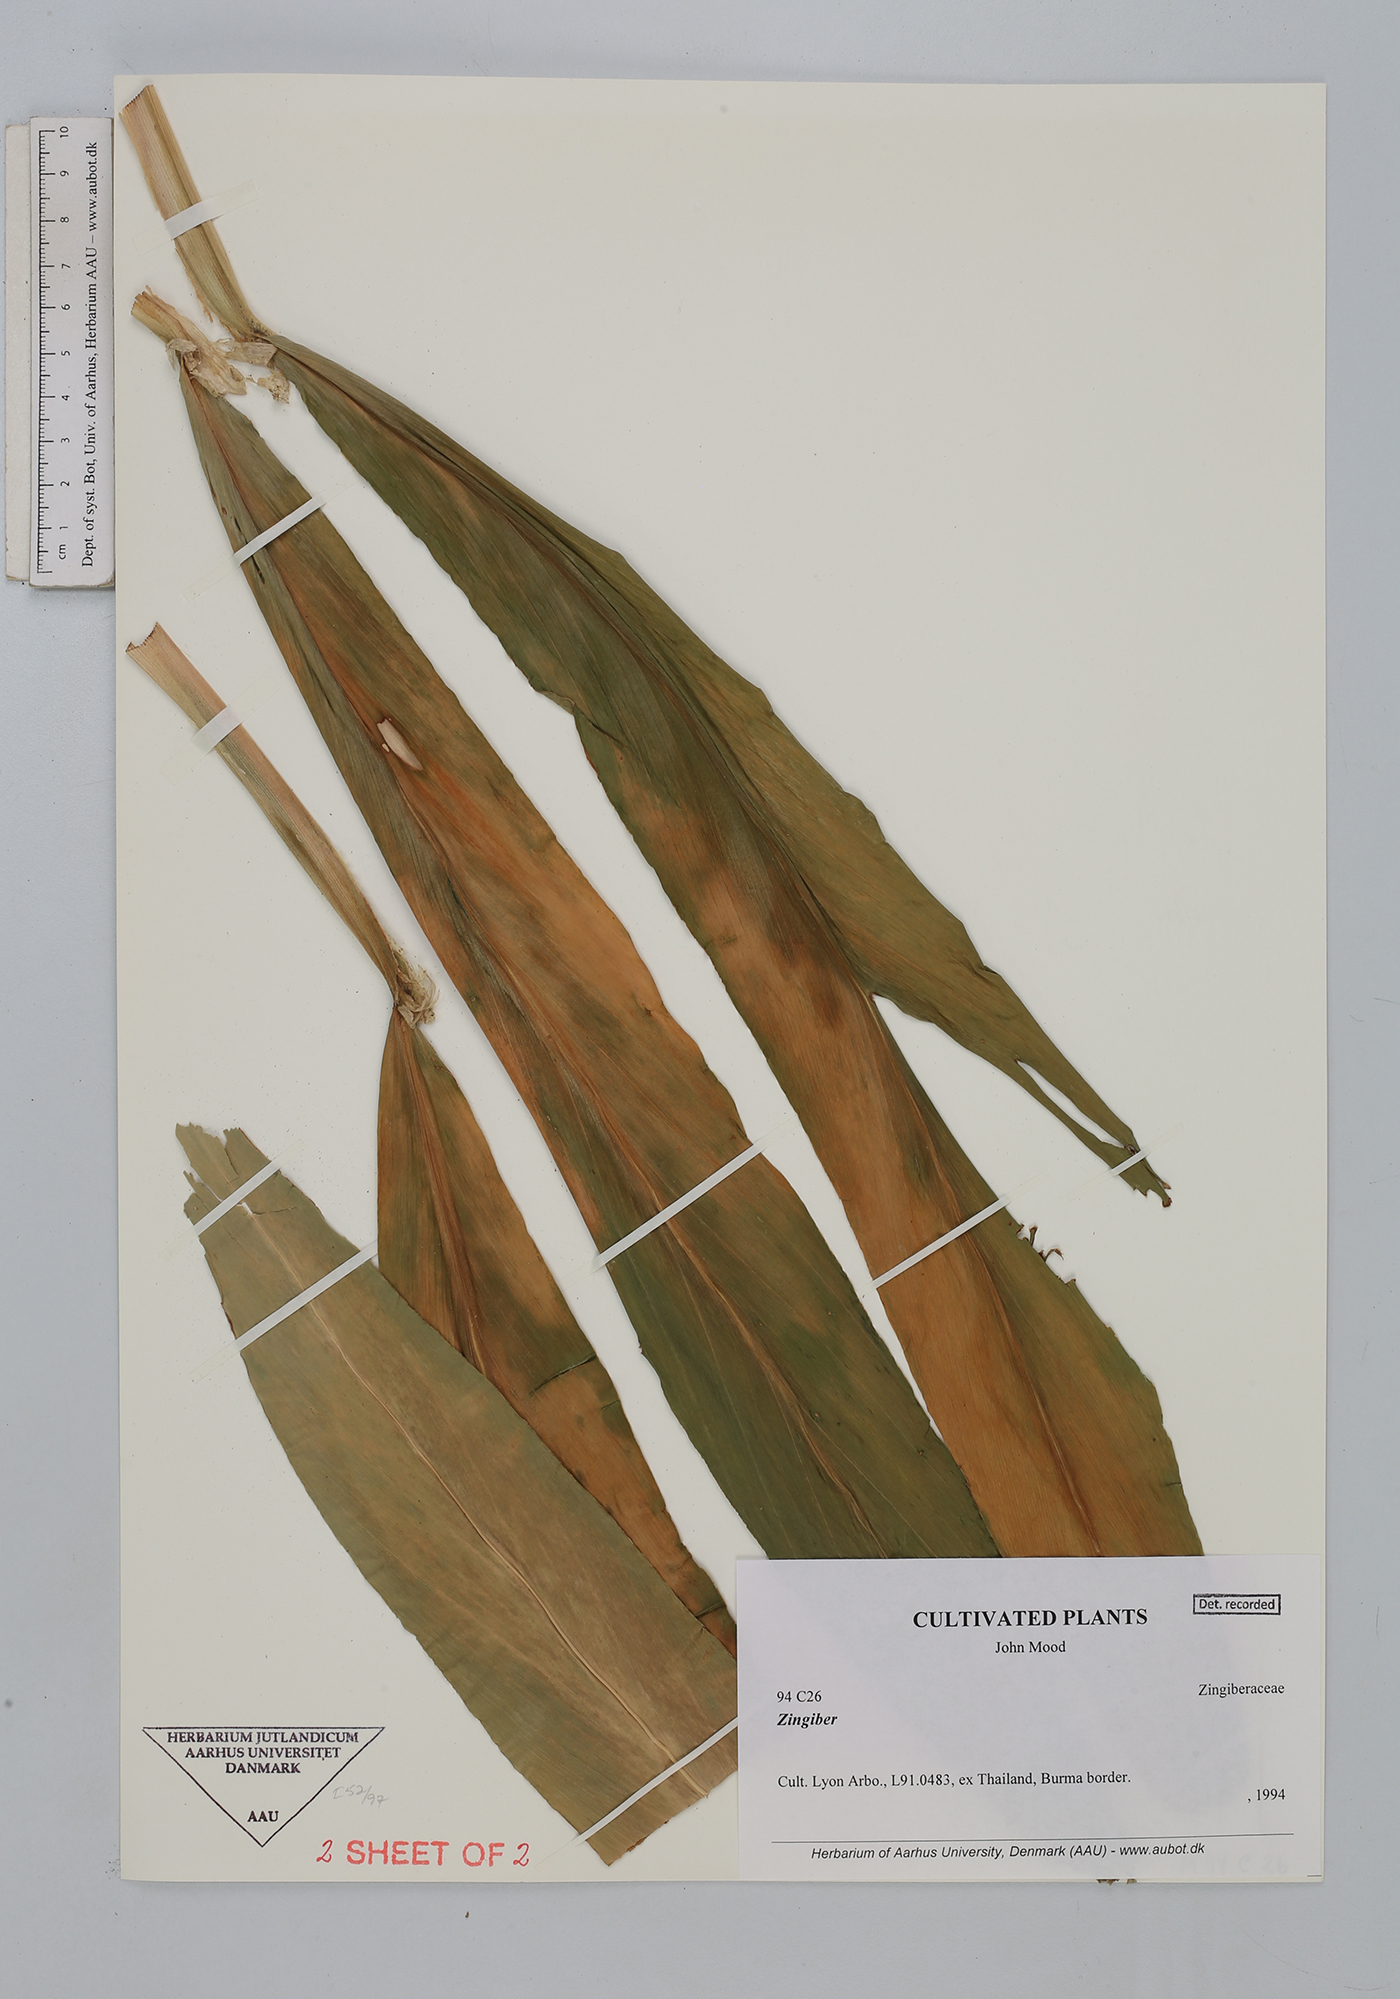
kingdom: Plantae
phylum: Tracheophyta
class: Liliopsida
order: Zingiberales
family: Zingiberaceae
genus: Zingiber
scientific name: Zingiber
